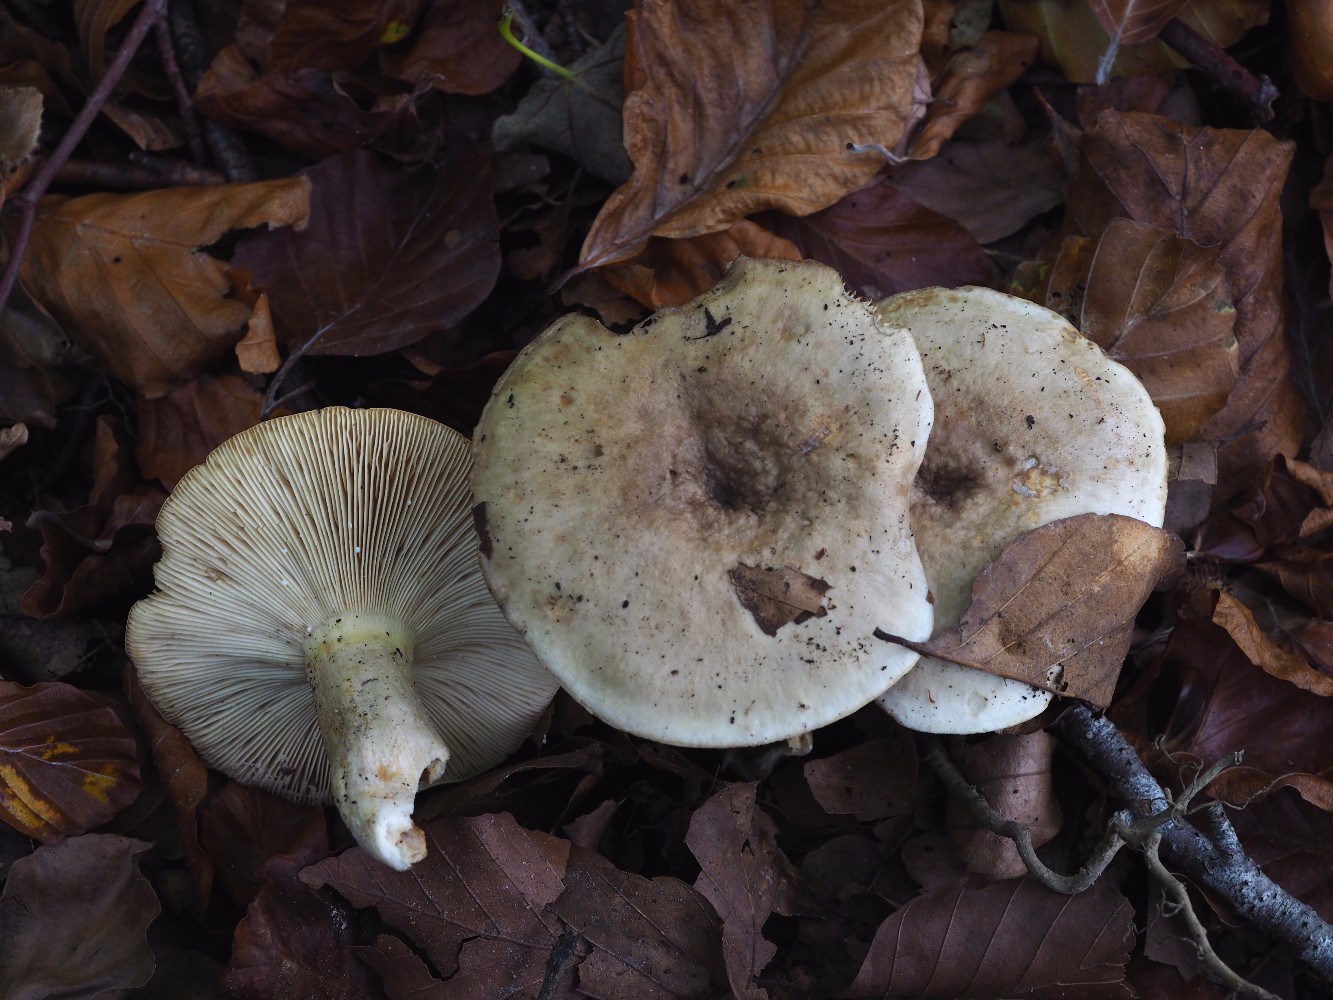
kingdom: Fungi
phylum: Basidiomycota
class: Agaricomycetes
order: Russulales
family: Russulaceae
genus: Lactarius
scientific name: Lactarius fluens
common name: lysrandet mælkehat
